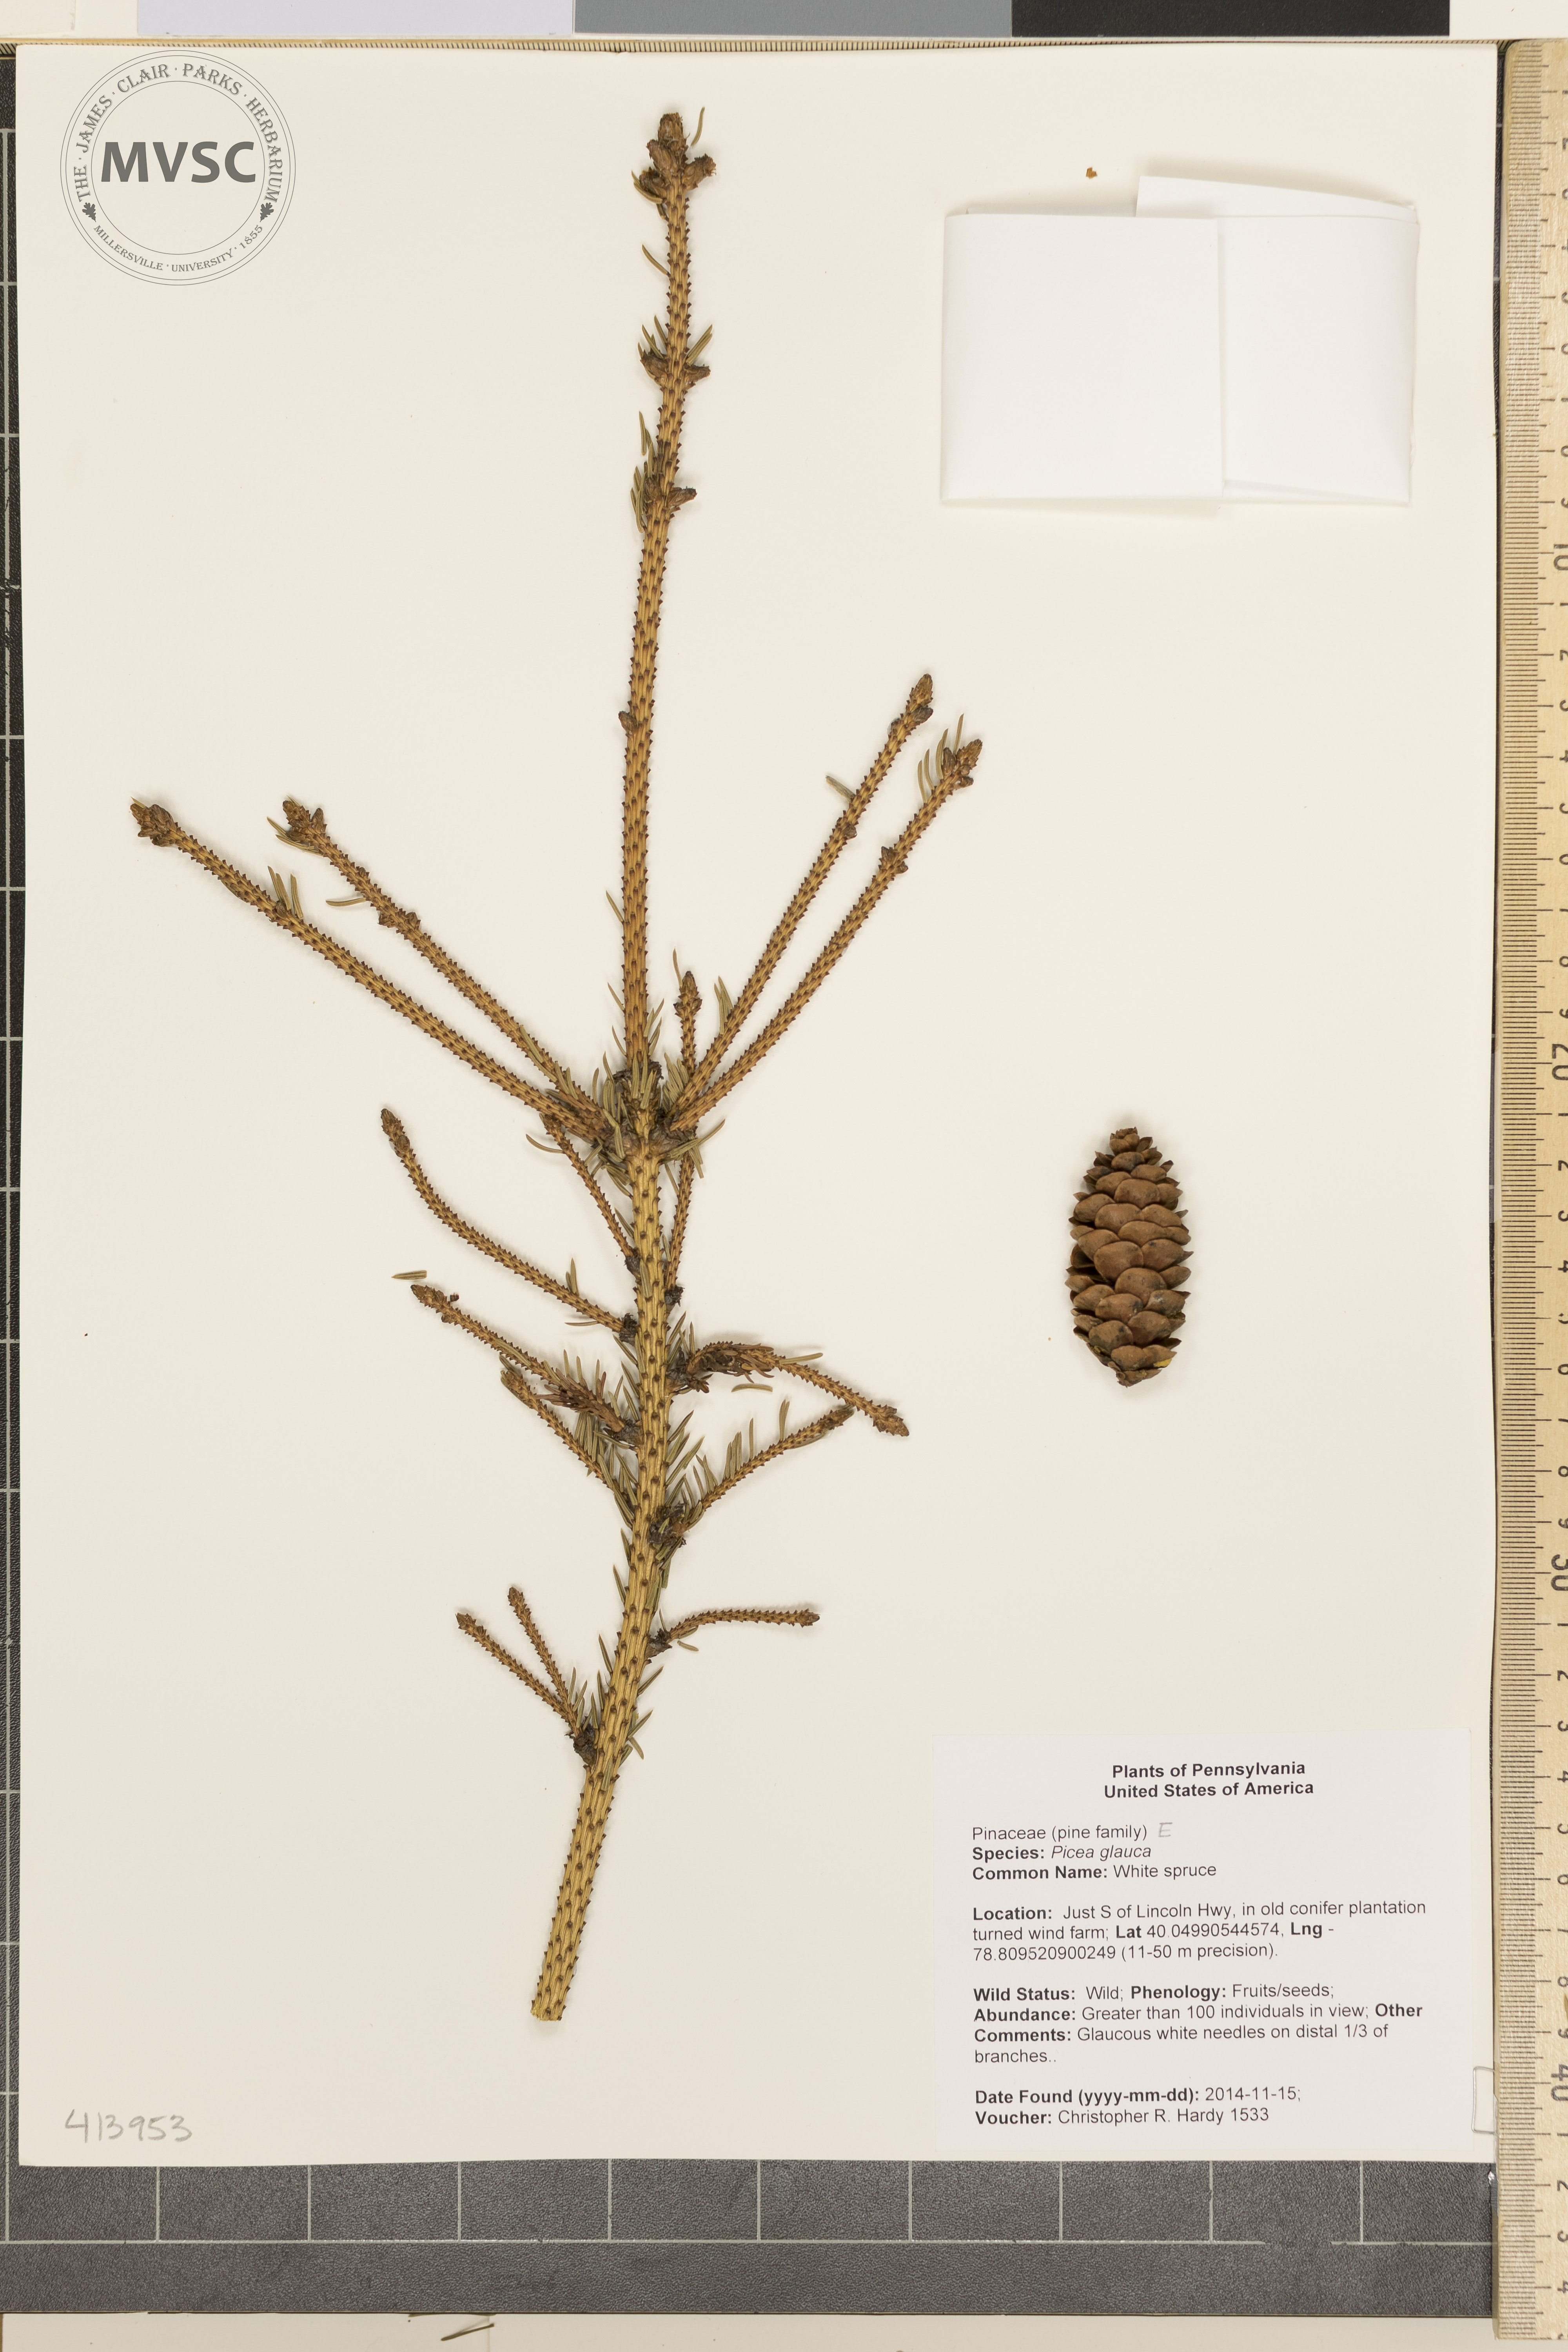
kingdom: Plantae
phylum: Tracheophyta
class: Pinopsida
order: Pinales
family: Pinaceae
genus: Picea
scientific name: Picea glauca
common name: White spruce
